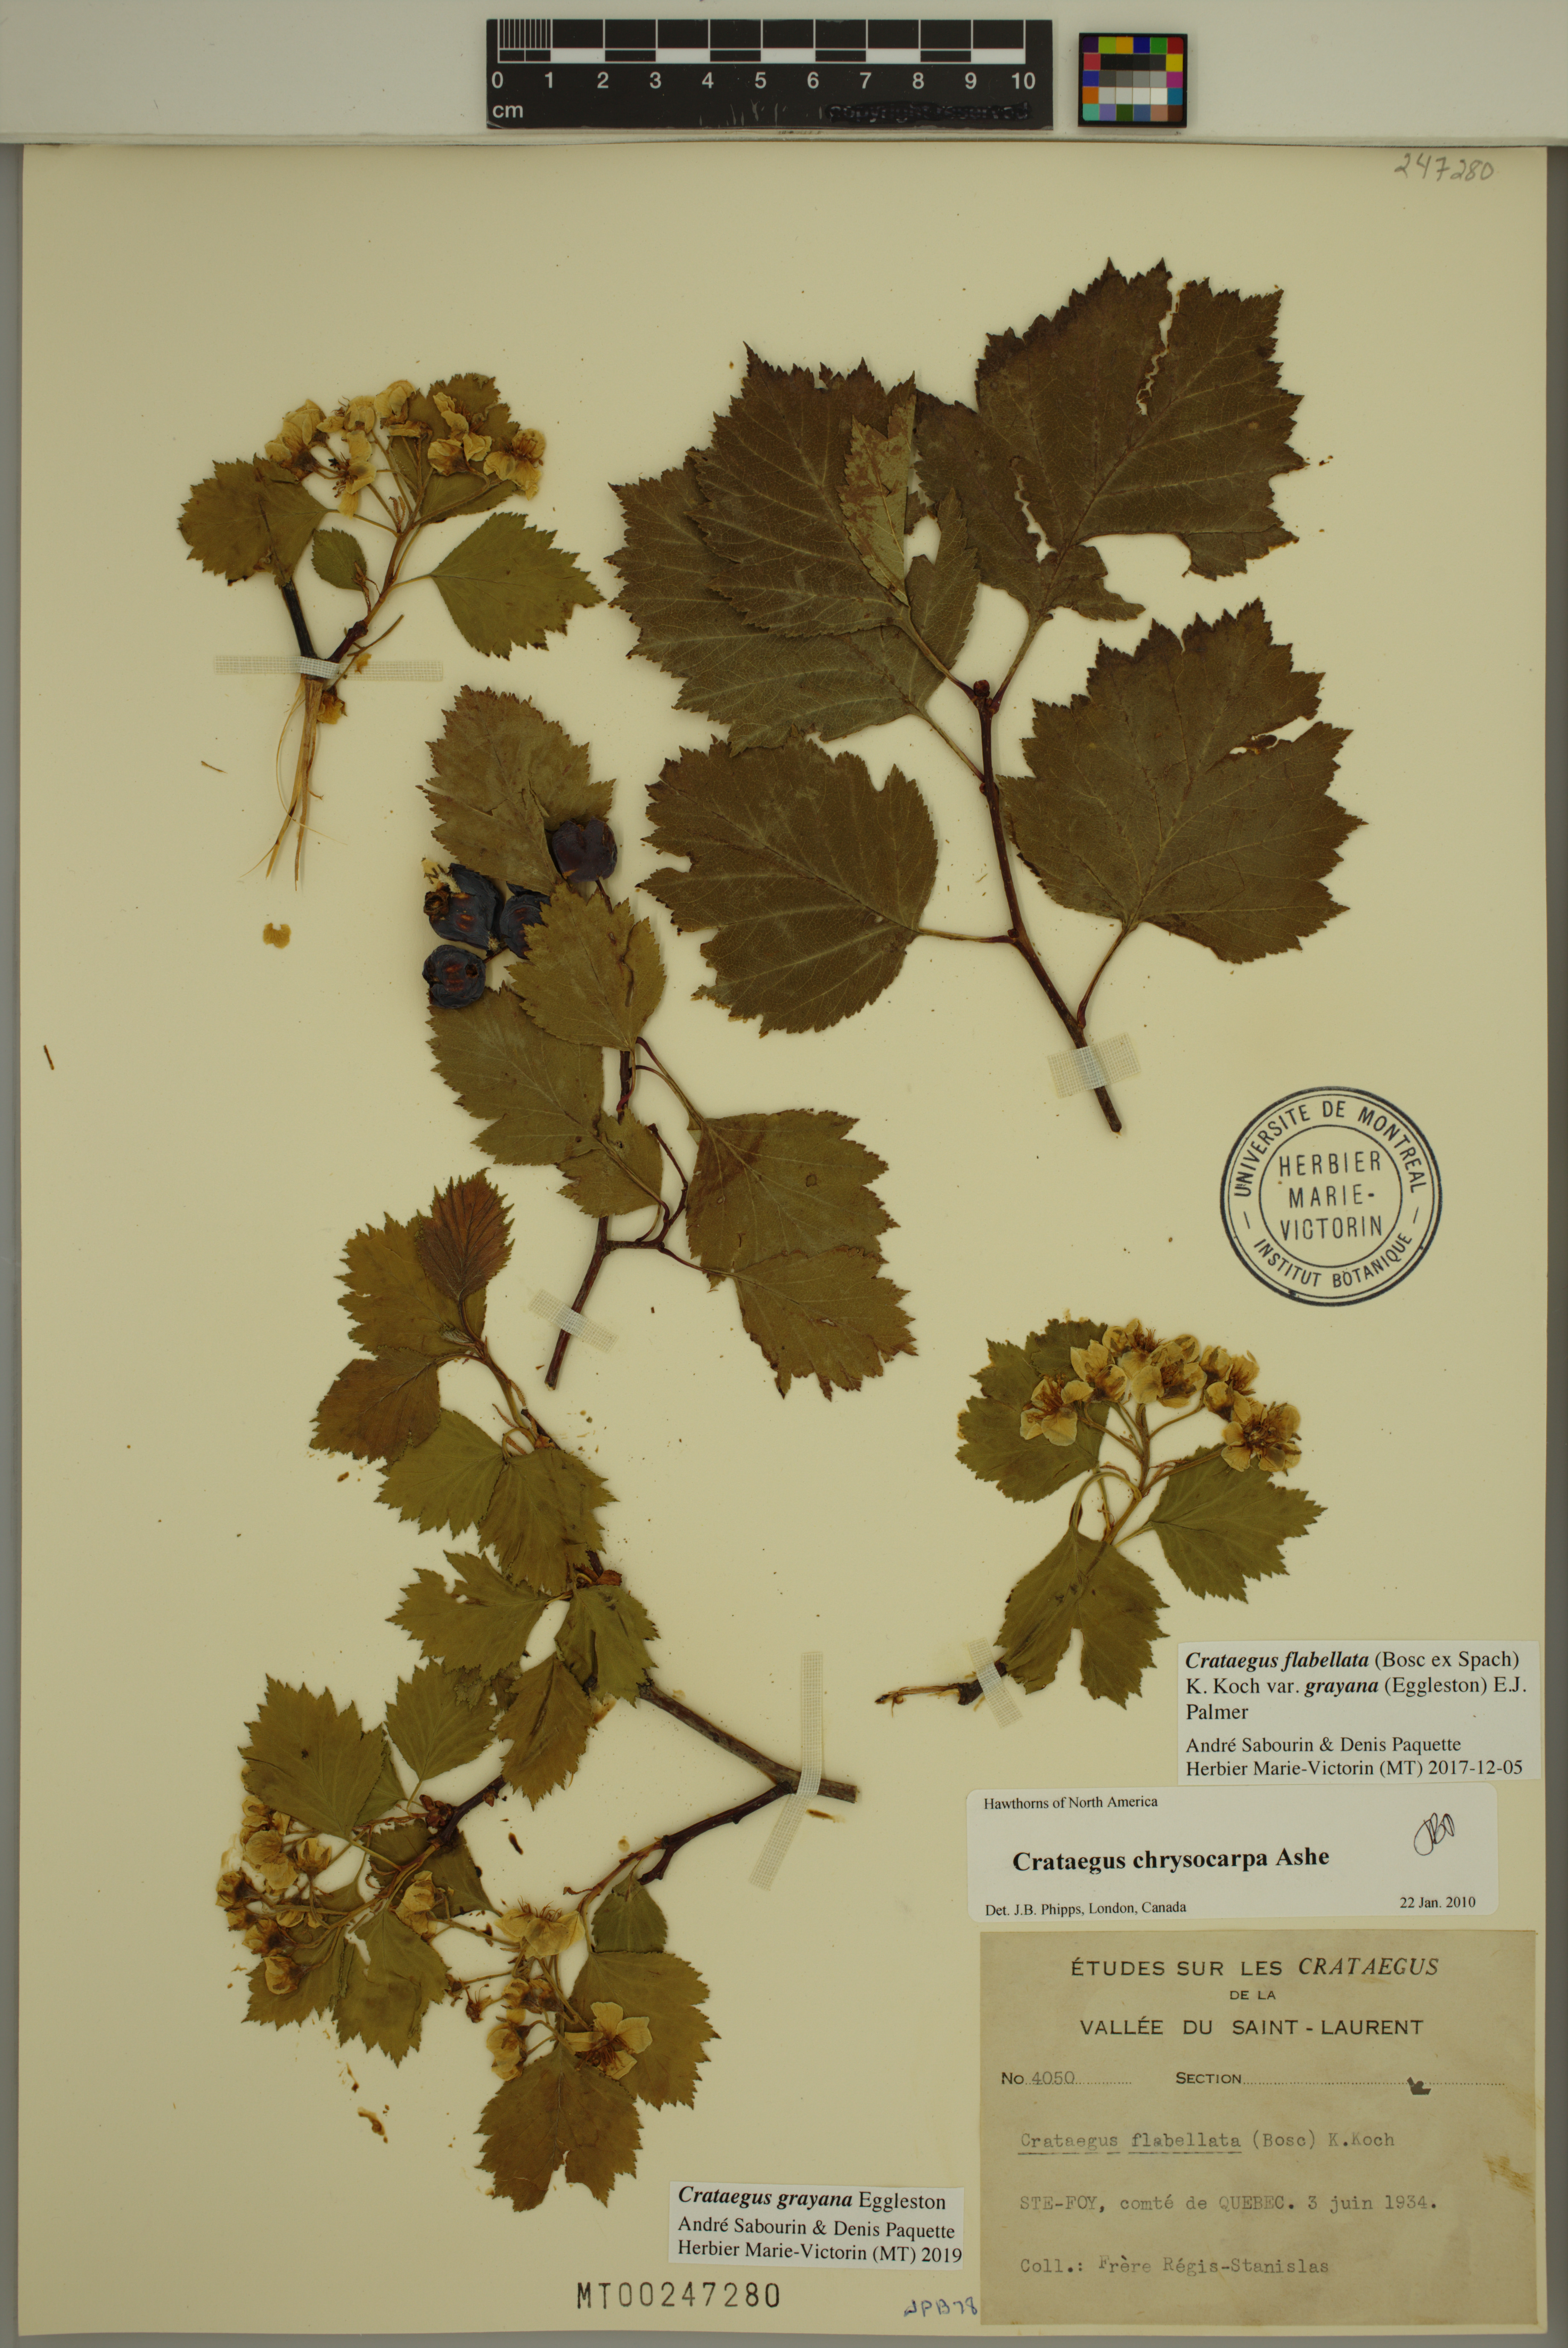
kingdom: Plantae
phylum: Tracheophyta
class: Magnoliopsida
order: Rosales
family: Rosaceae
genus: Crataegus
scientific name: Crataegus schuettei
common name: Schuette's hawthorn
